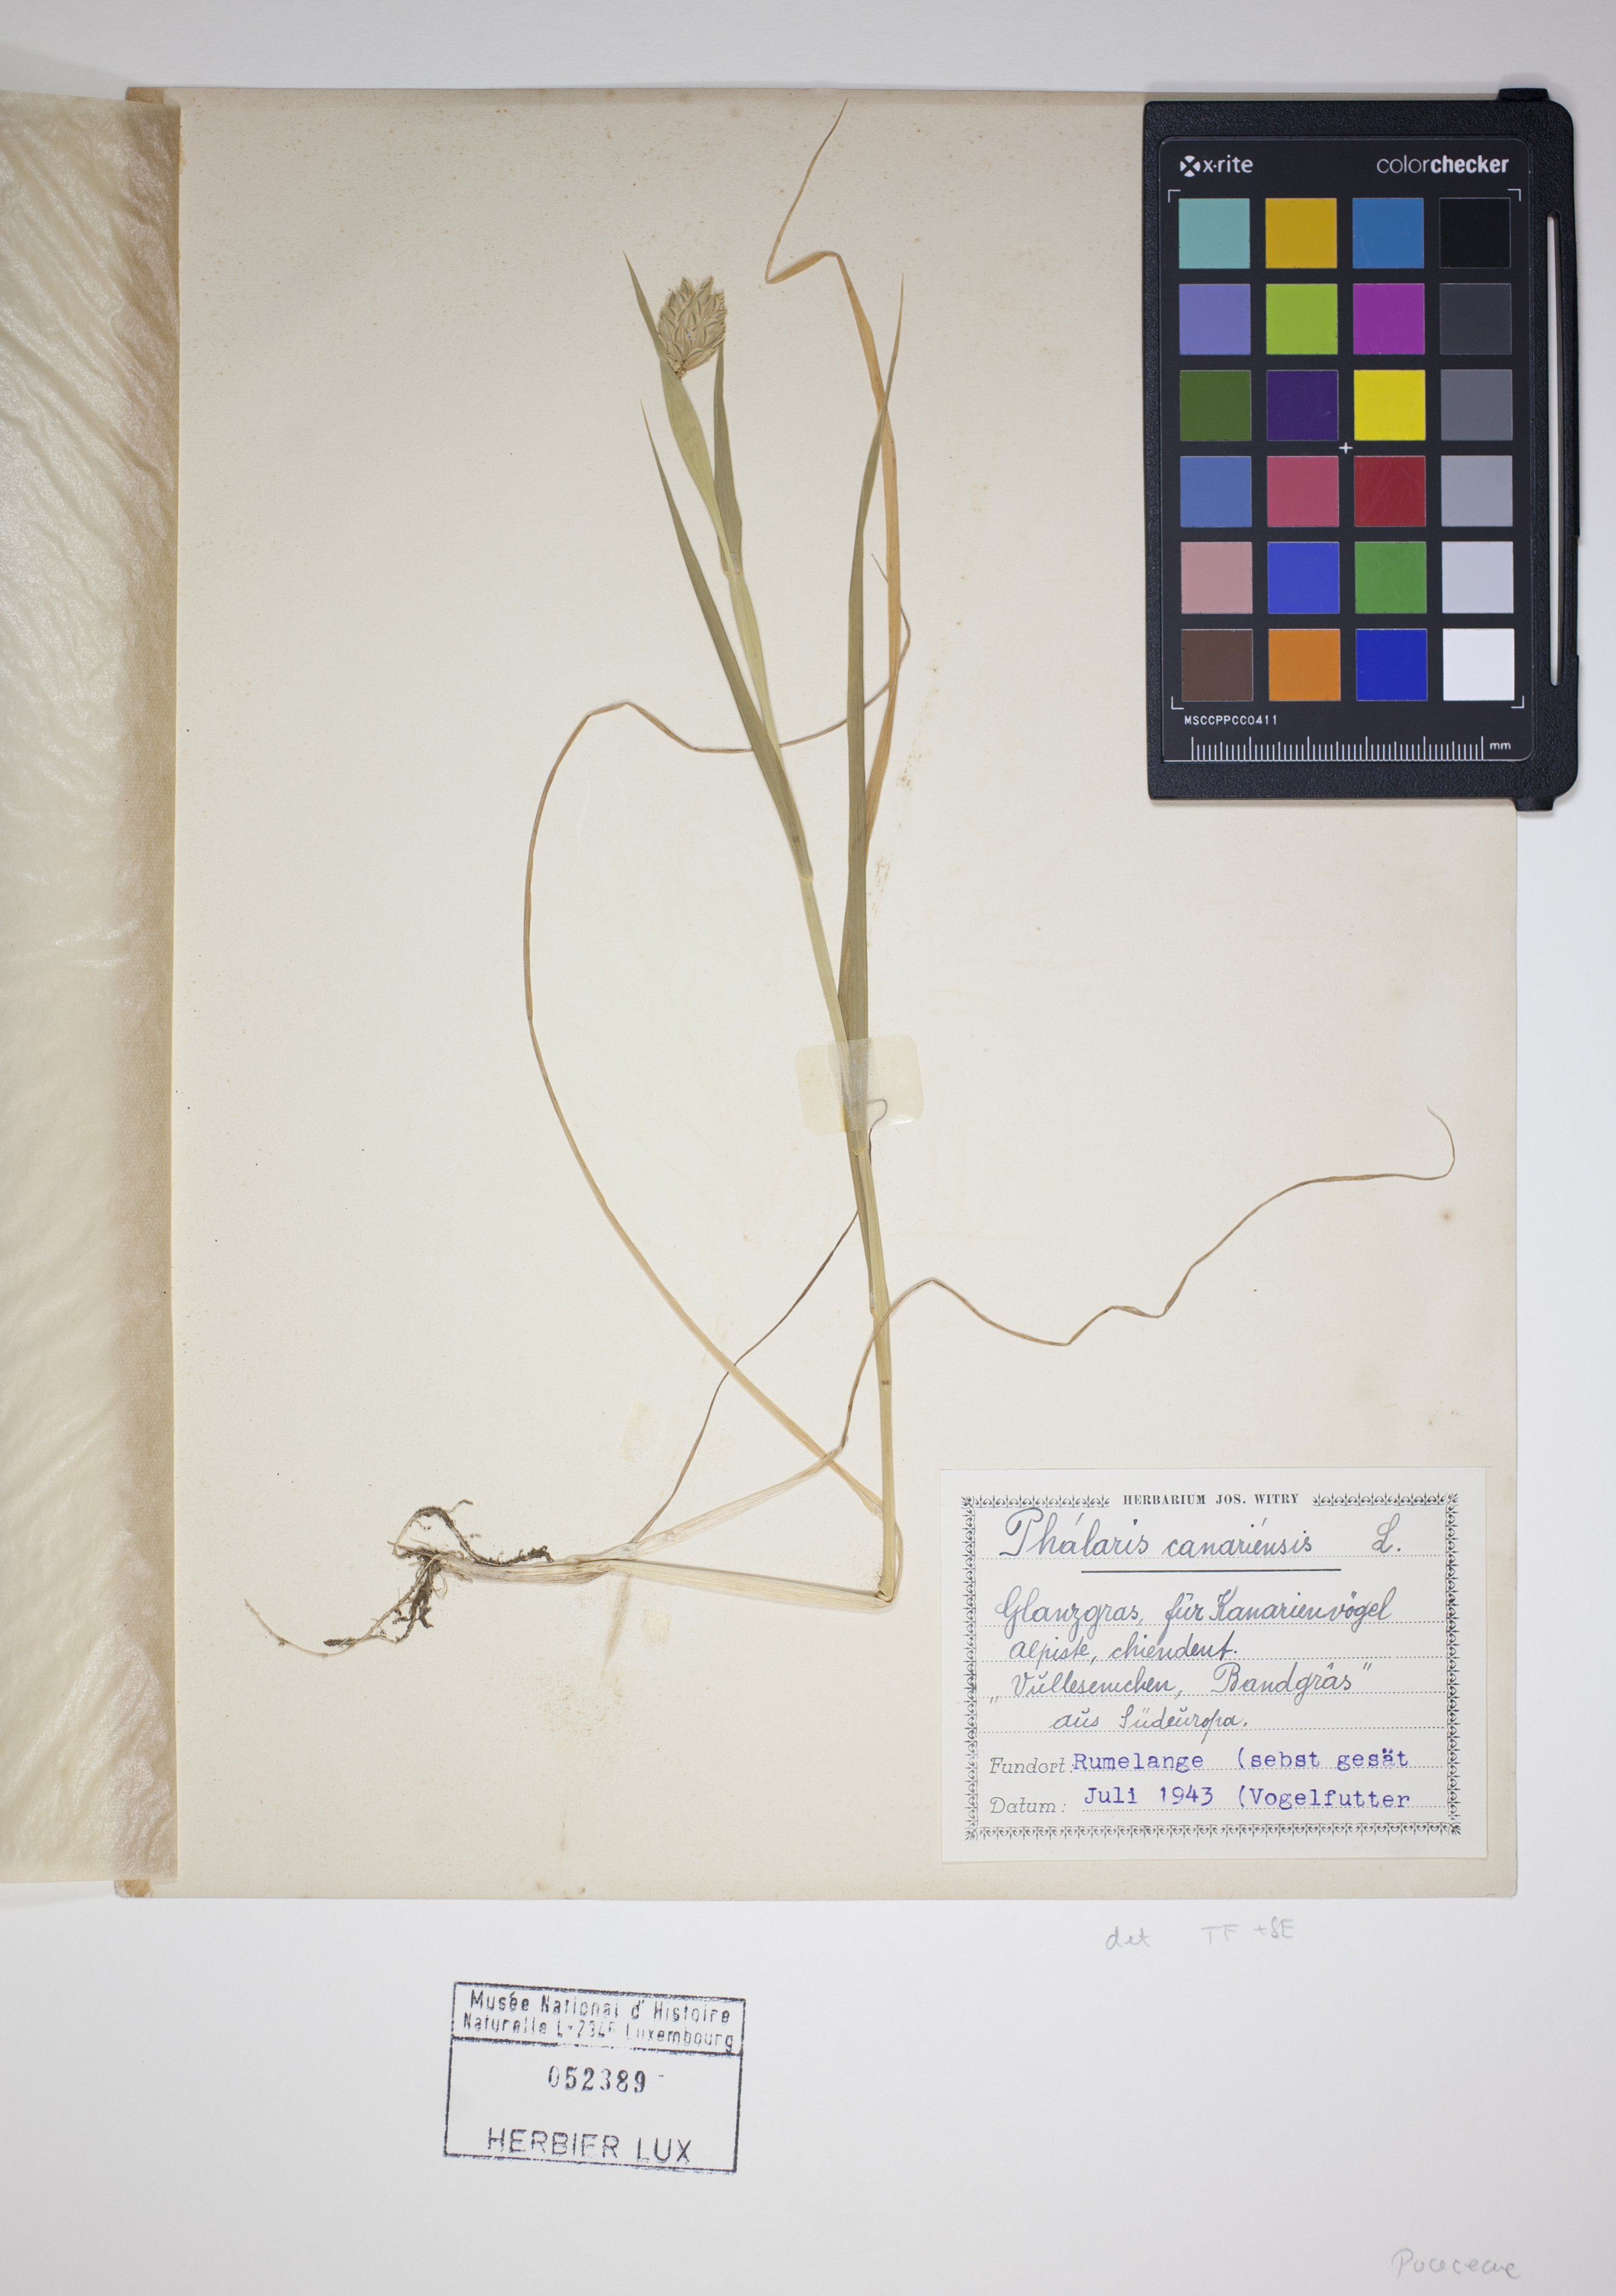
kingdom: Plantae
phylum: Tracheophyta
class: Liliopsida
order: Poales
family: Poaceae
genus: Phalaris
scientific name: Phalaris canariensis
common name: Annual canarygrass
